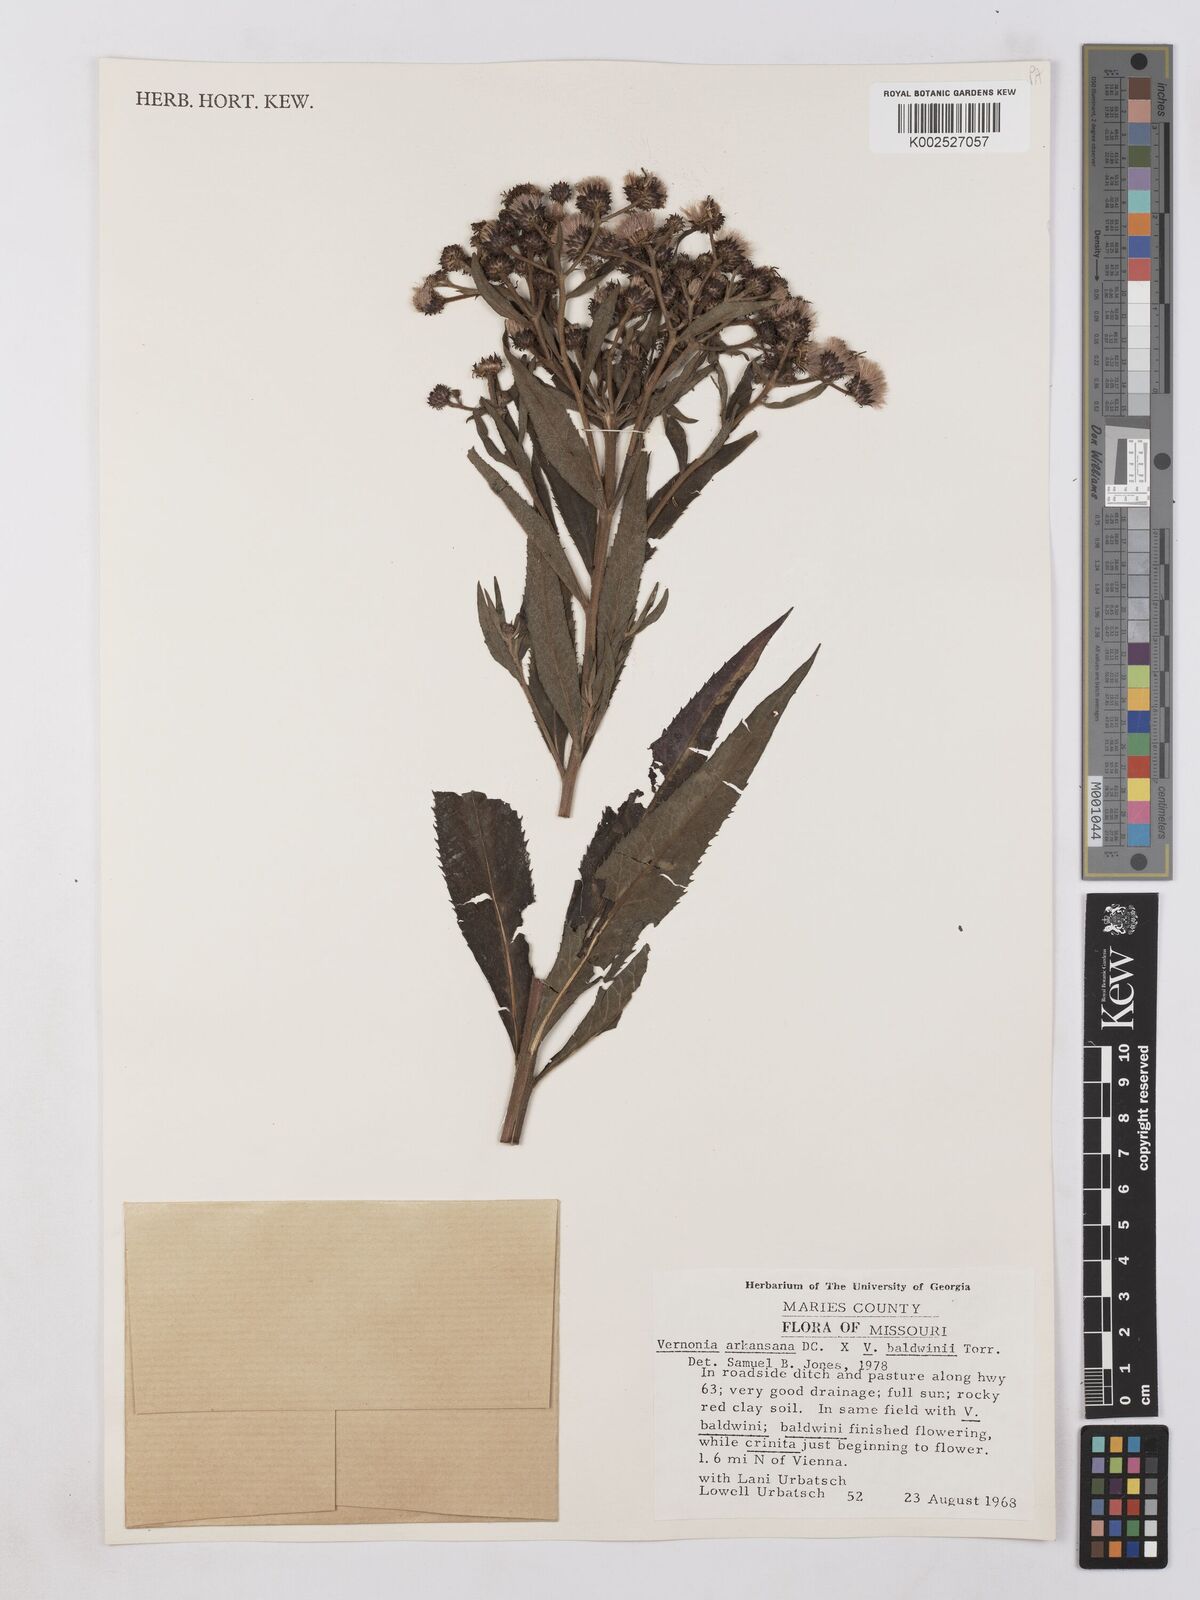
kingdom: Plantae
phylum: Tracheophyta
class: Magnoliopsida
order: Asterales
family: Asteraceae
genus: Vernonia
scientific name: Vernonia baldwinii
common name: Western ironweed
